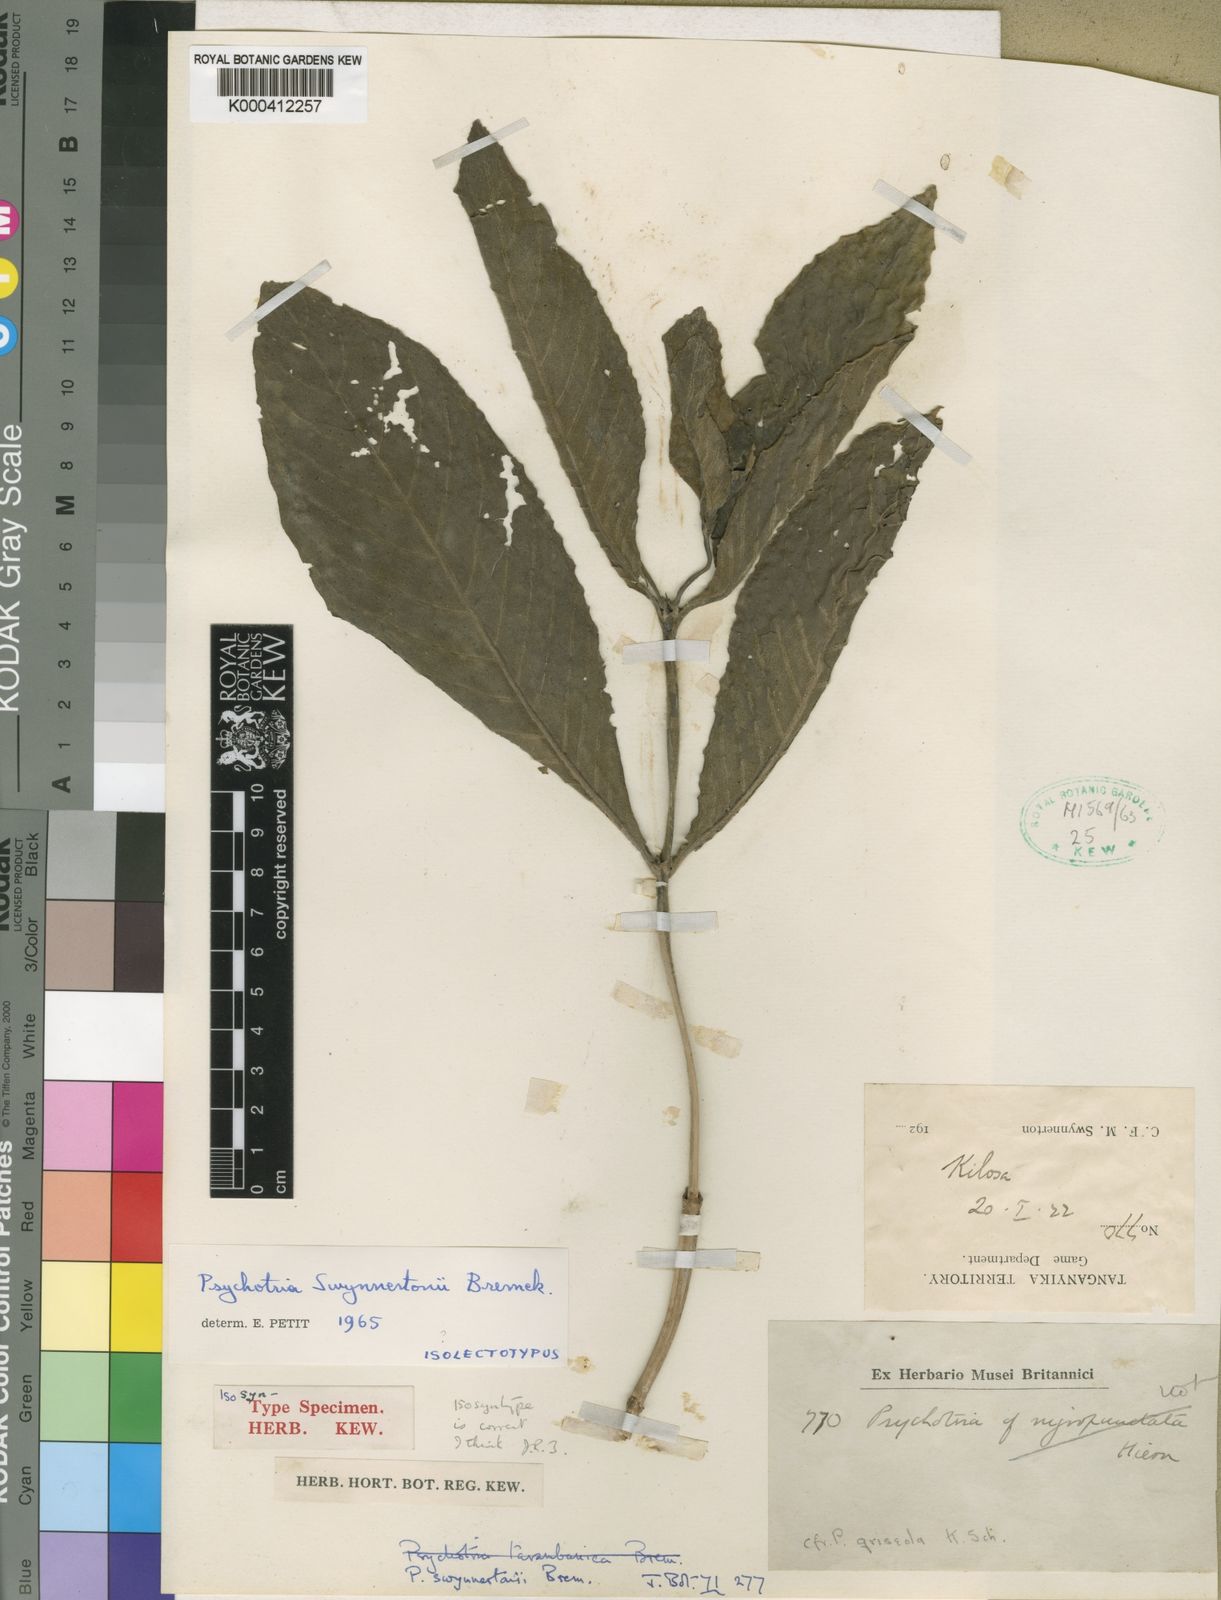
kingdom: Plantae
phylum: Tracheophyta
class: Magnoliopsida
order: Gentianales
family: Rubiaceae
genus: Psychotria
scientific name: Psychotria punctata
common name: Dotted wild coffee
